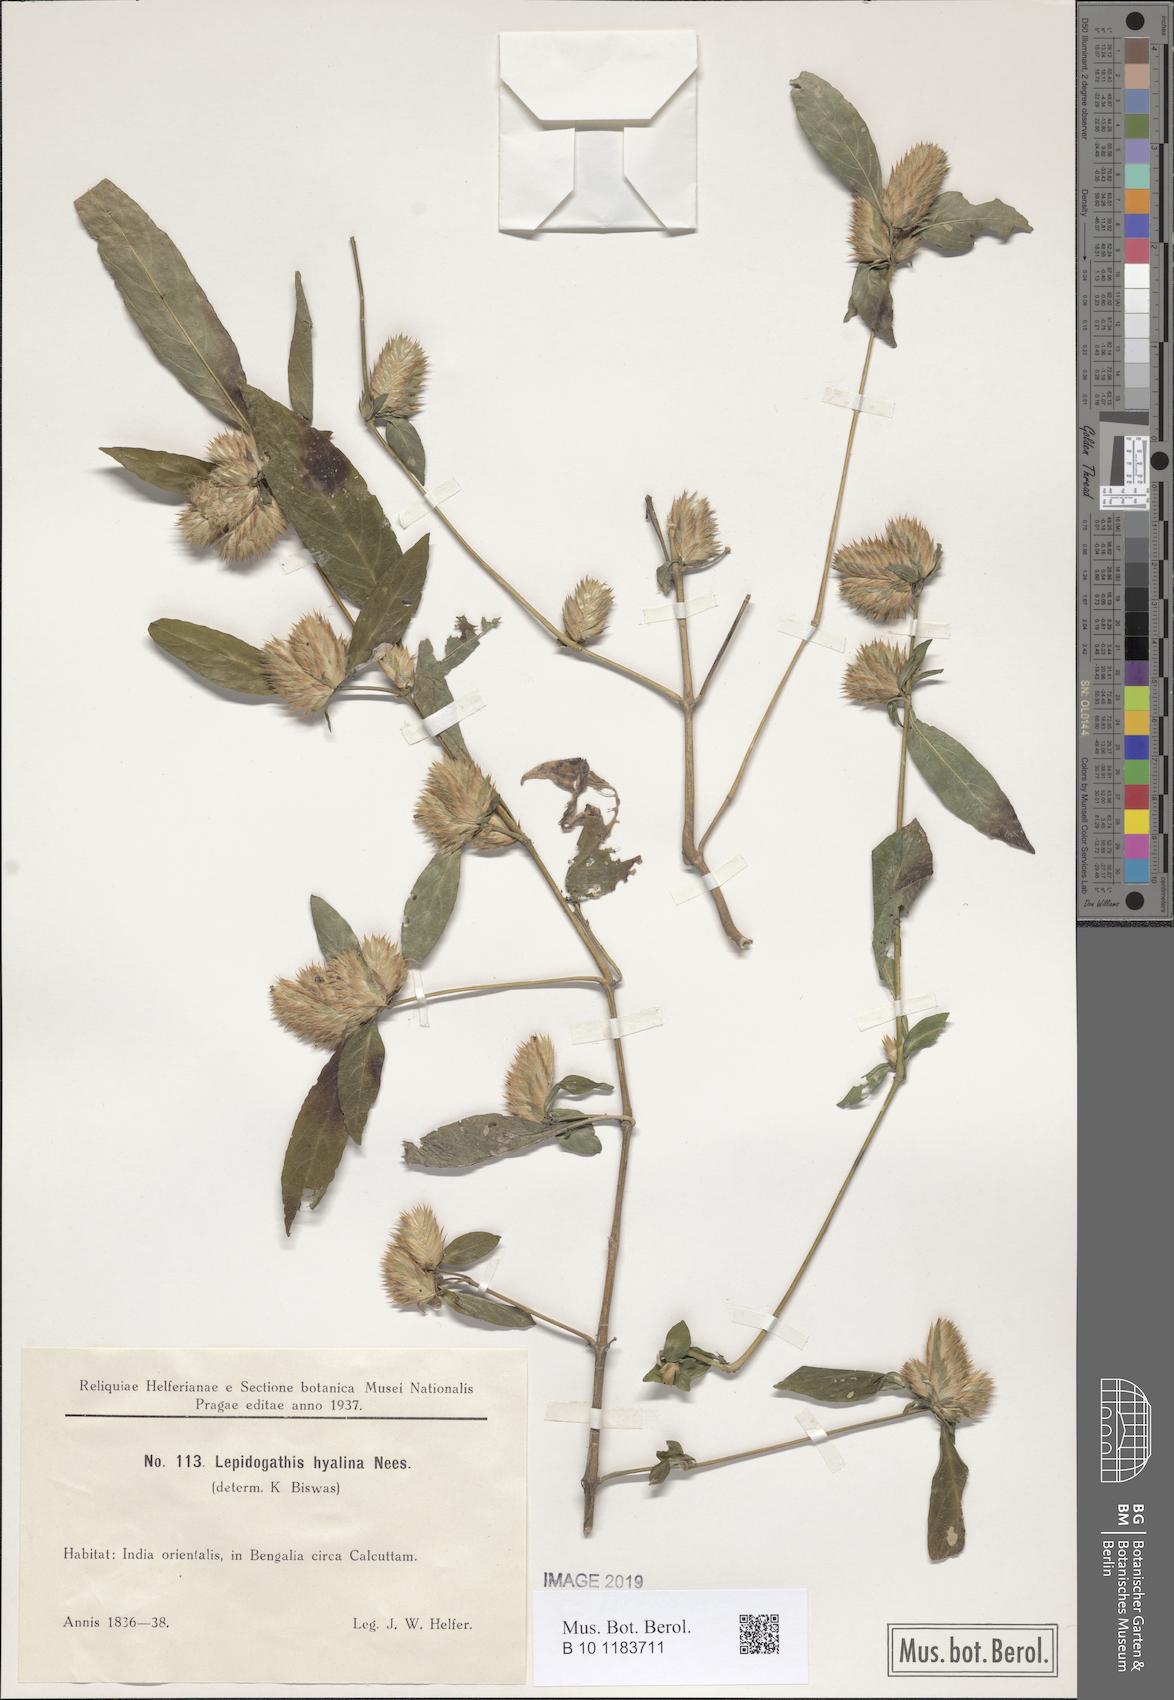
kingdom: Plantae
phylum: Tracheophyta
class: Magnoliopsida
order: Lamiales
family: Acanthaceae
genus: Lepidagathis
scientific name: Lepidagathis incurva
